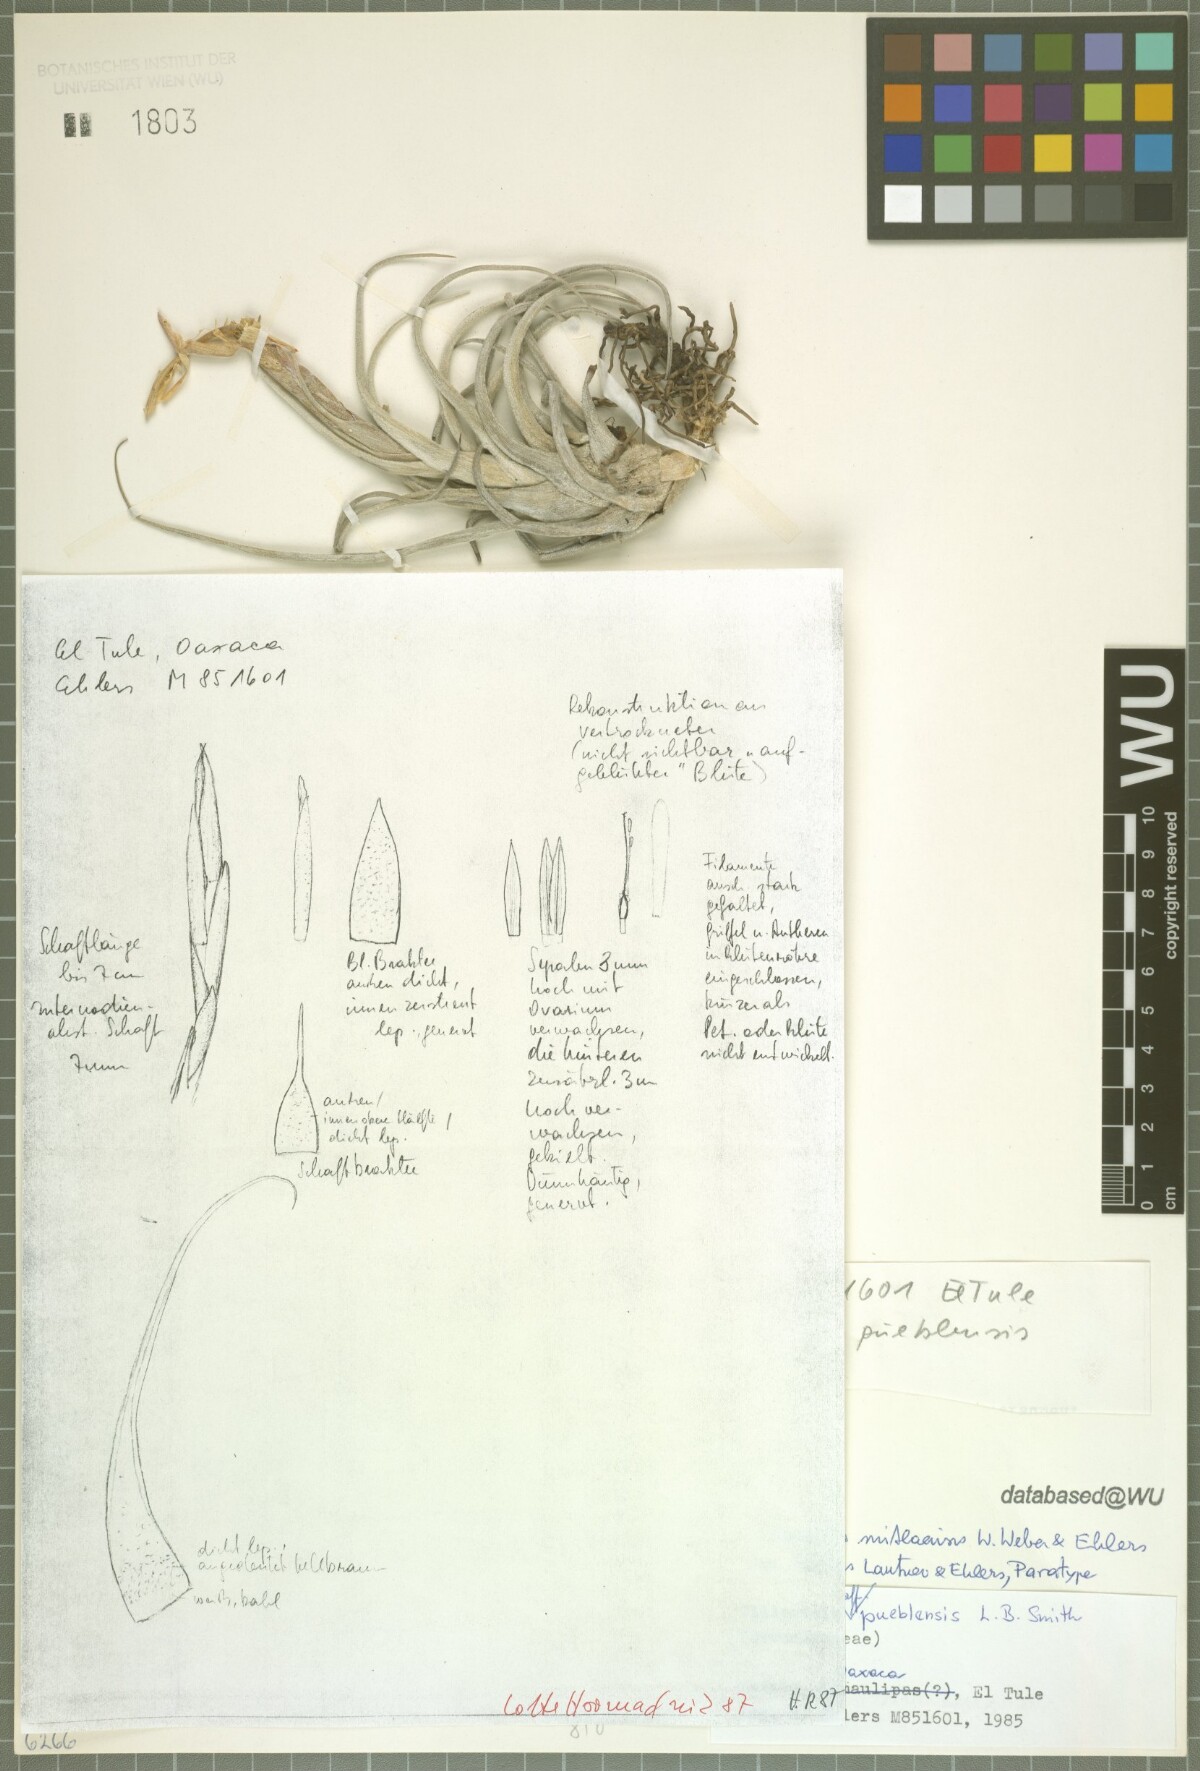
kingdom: Plantae
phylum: Tracheophyta
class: Liliopsida
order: Poales
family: Bromeliaceae
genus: Tillandsia
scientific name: Tillandsia mitlaensis
